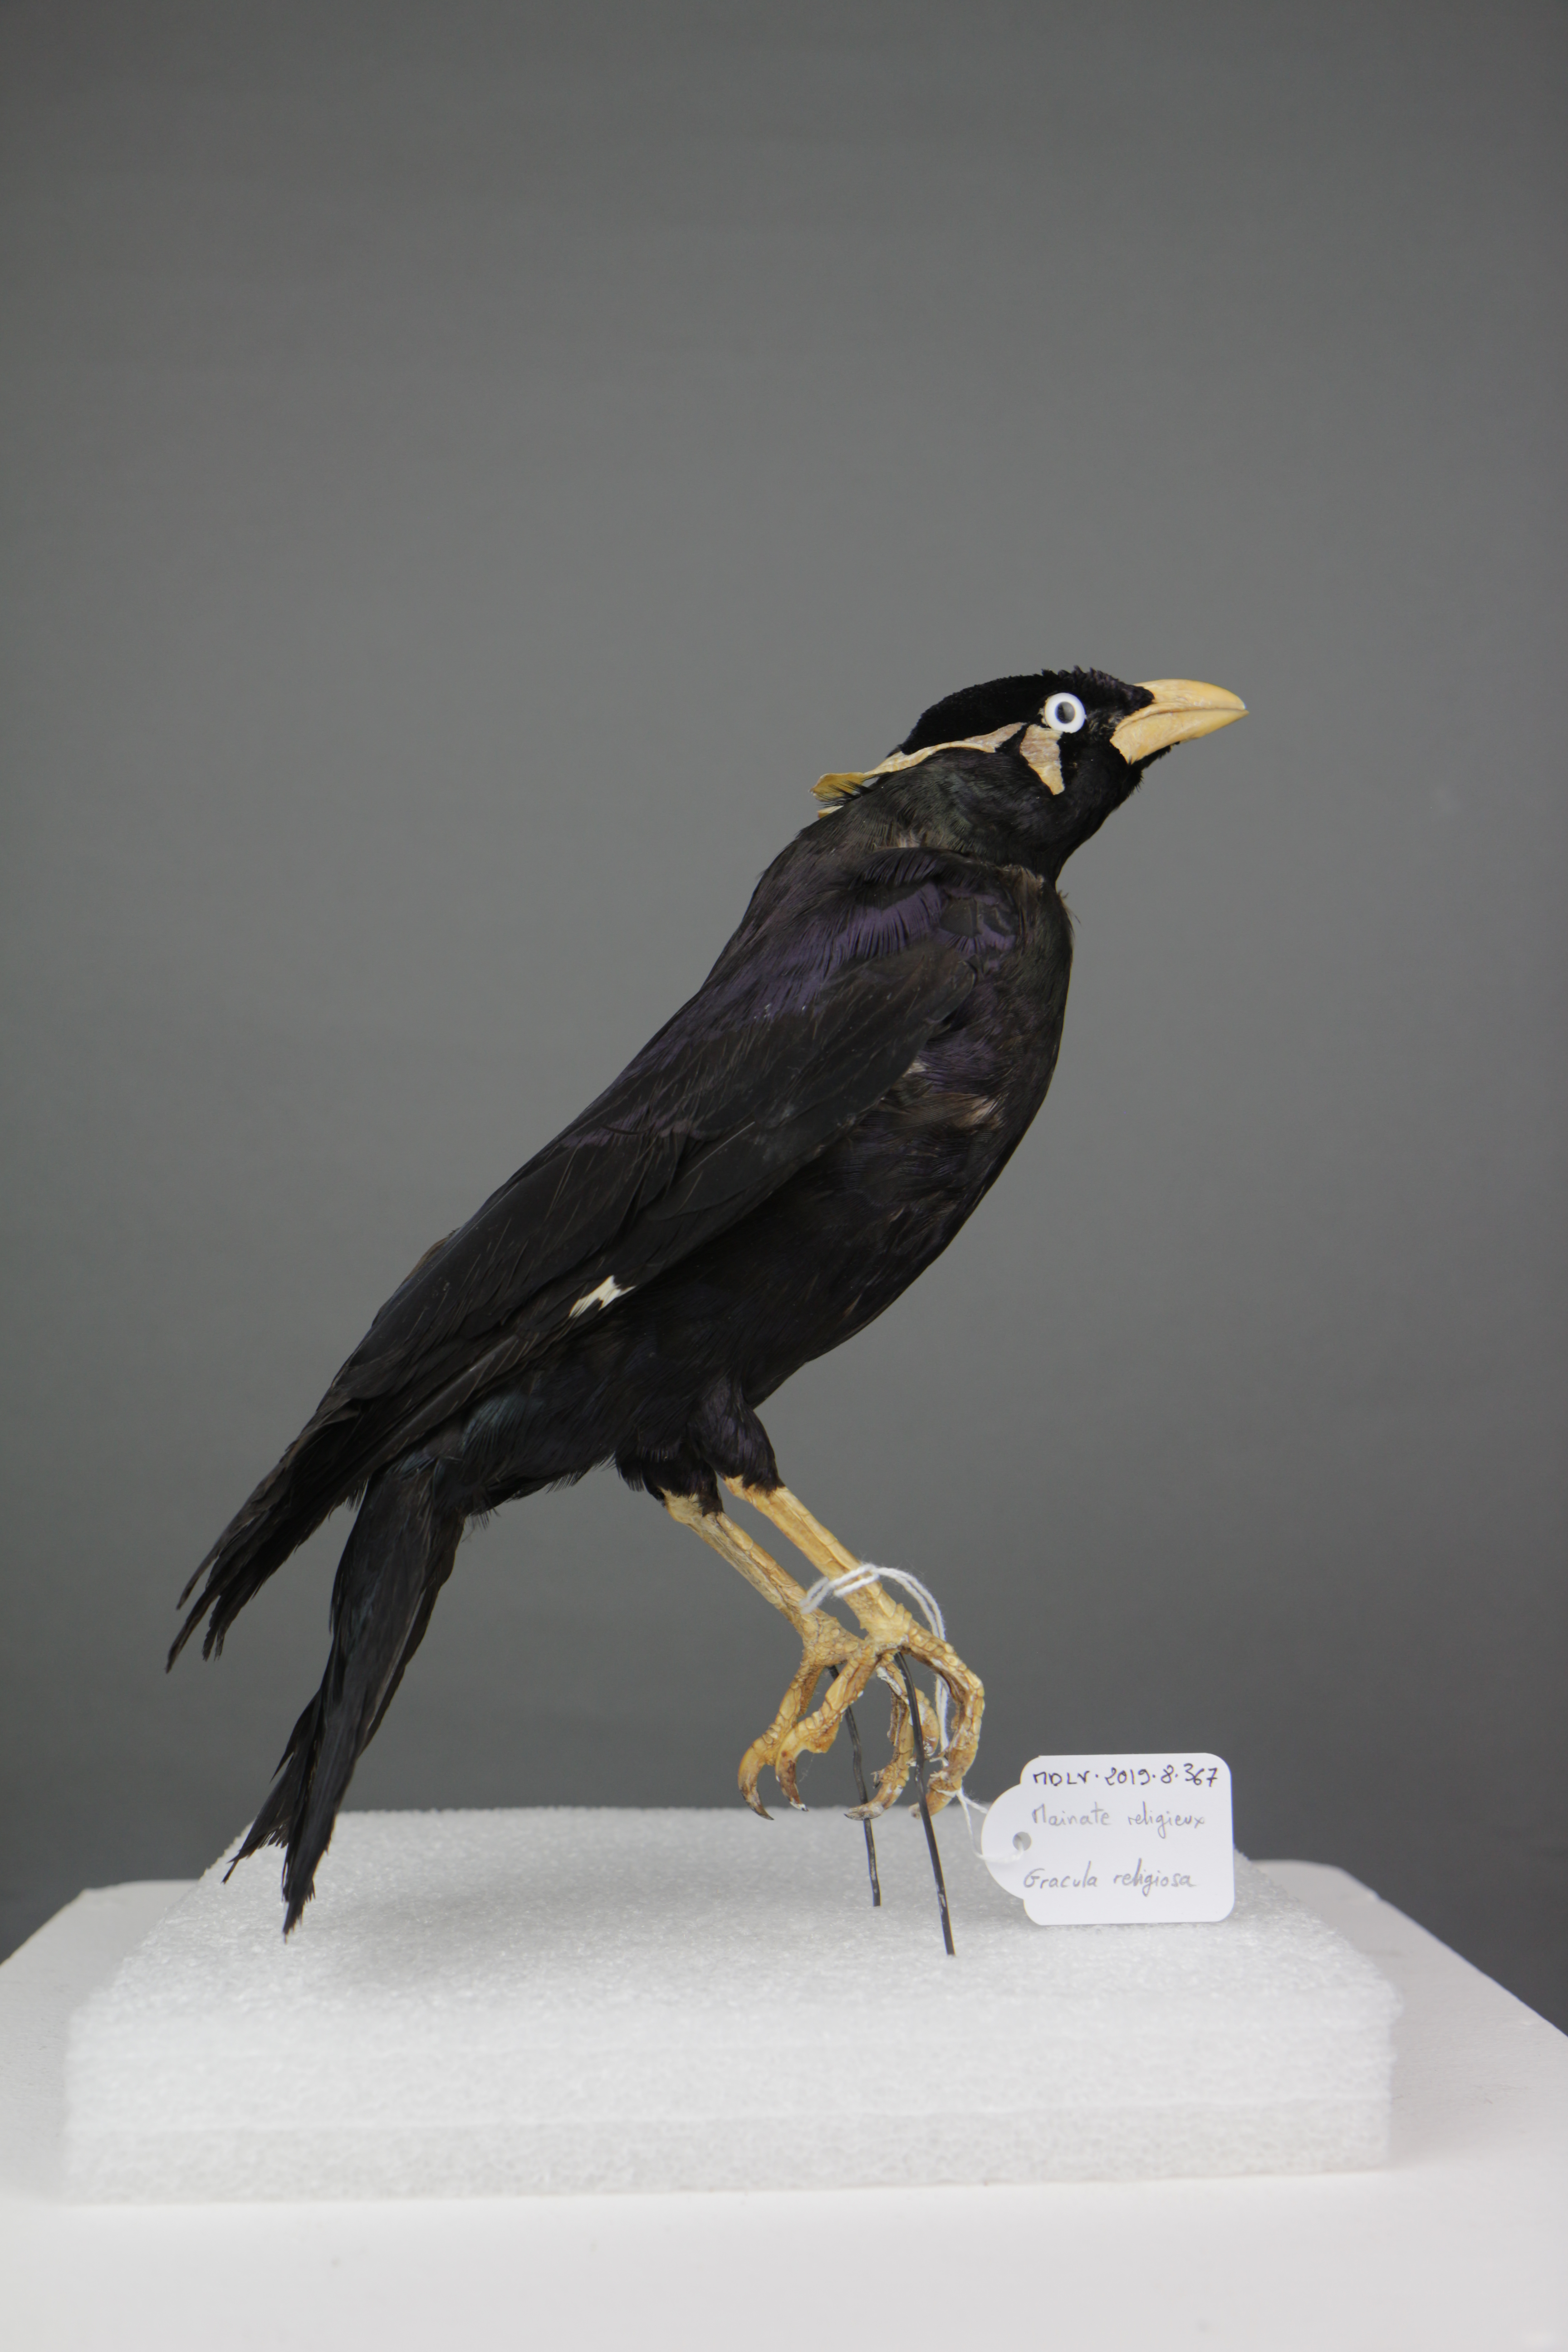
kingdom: Animalia
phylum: Chordata
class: Aves
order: Passeriformes
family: Sturnidae
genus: Gracula
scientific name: Gracula religiosa
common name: Common hill myna
